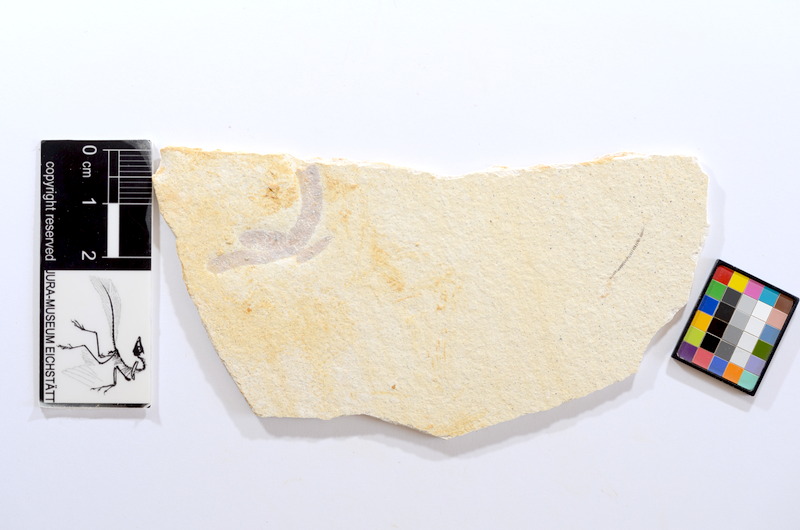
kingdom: Animalia
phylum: Chordata
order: Salmoniformes
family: Orthogonikleithridae
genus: Orthogonikleithrus
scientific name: Orthogonikleithrus hoelli
